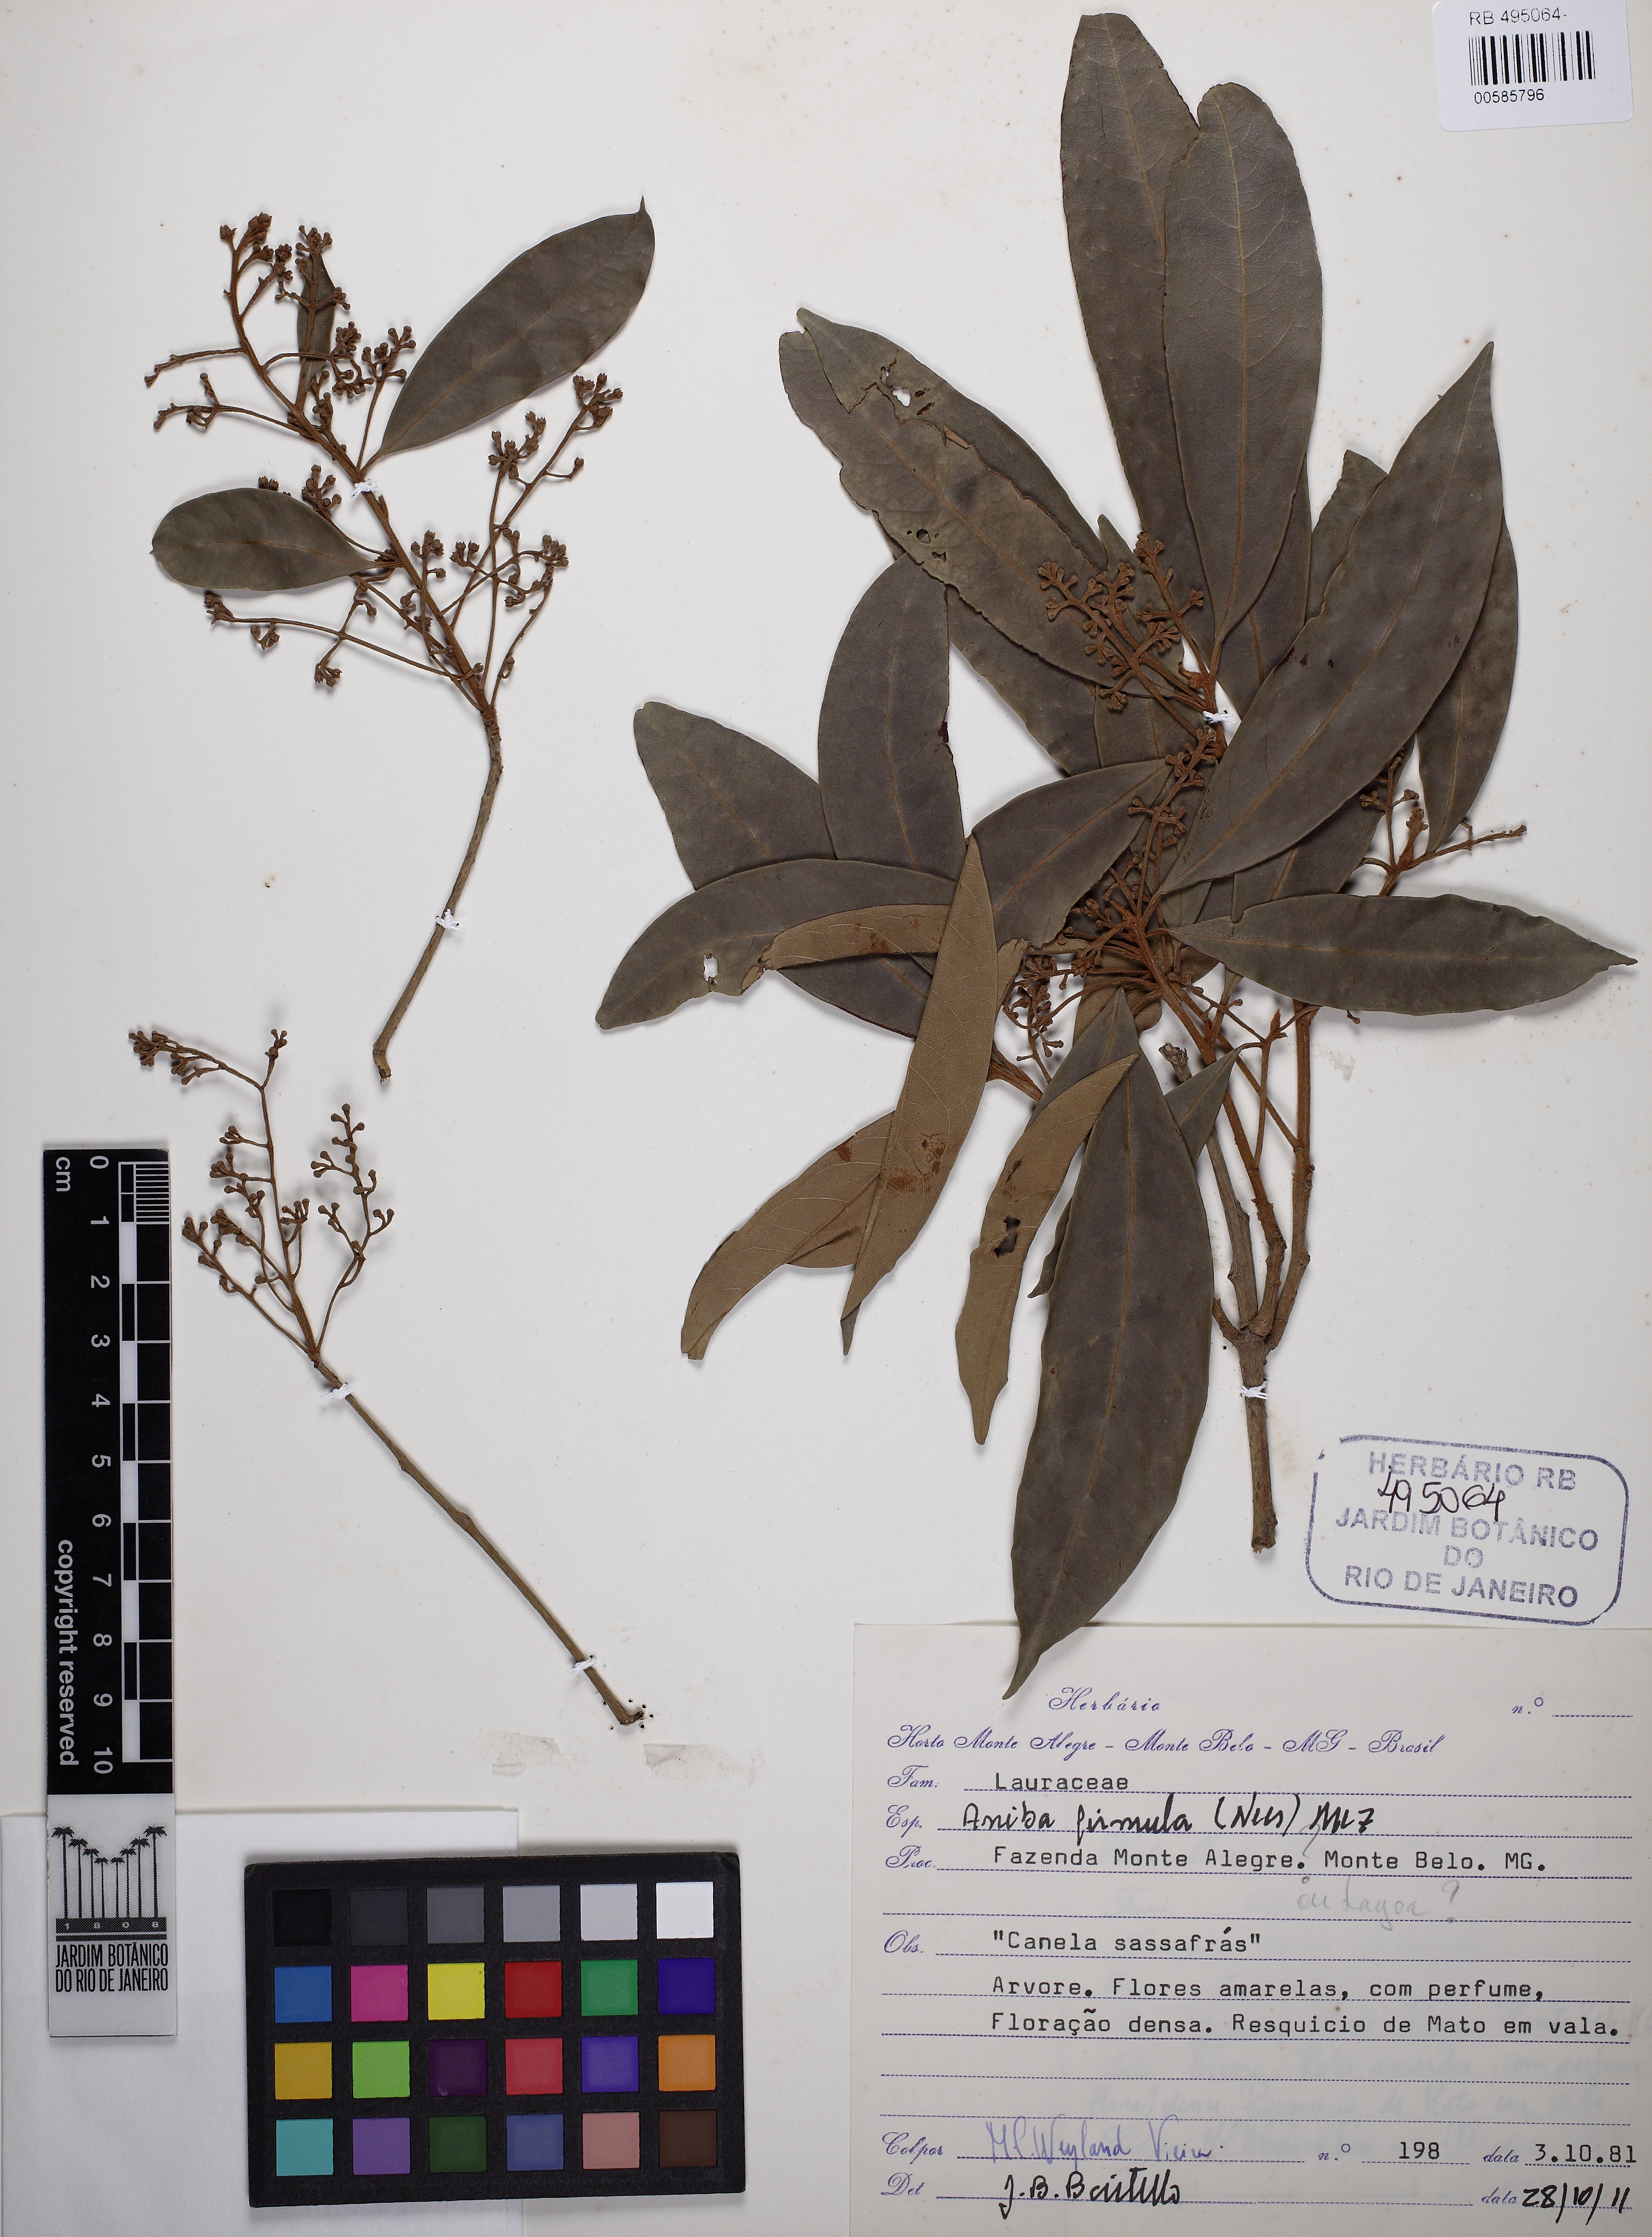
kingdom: Plantae
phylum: Tracheophyta
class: Magnoliopsida
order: Laurales
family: Lauraceae
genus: Aniba
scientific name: Aniba firmula
